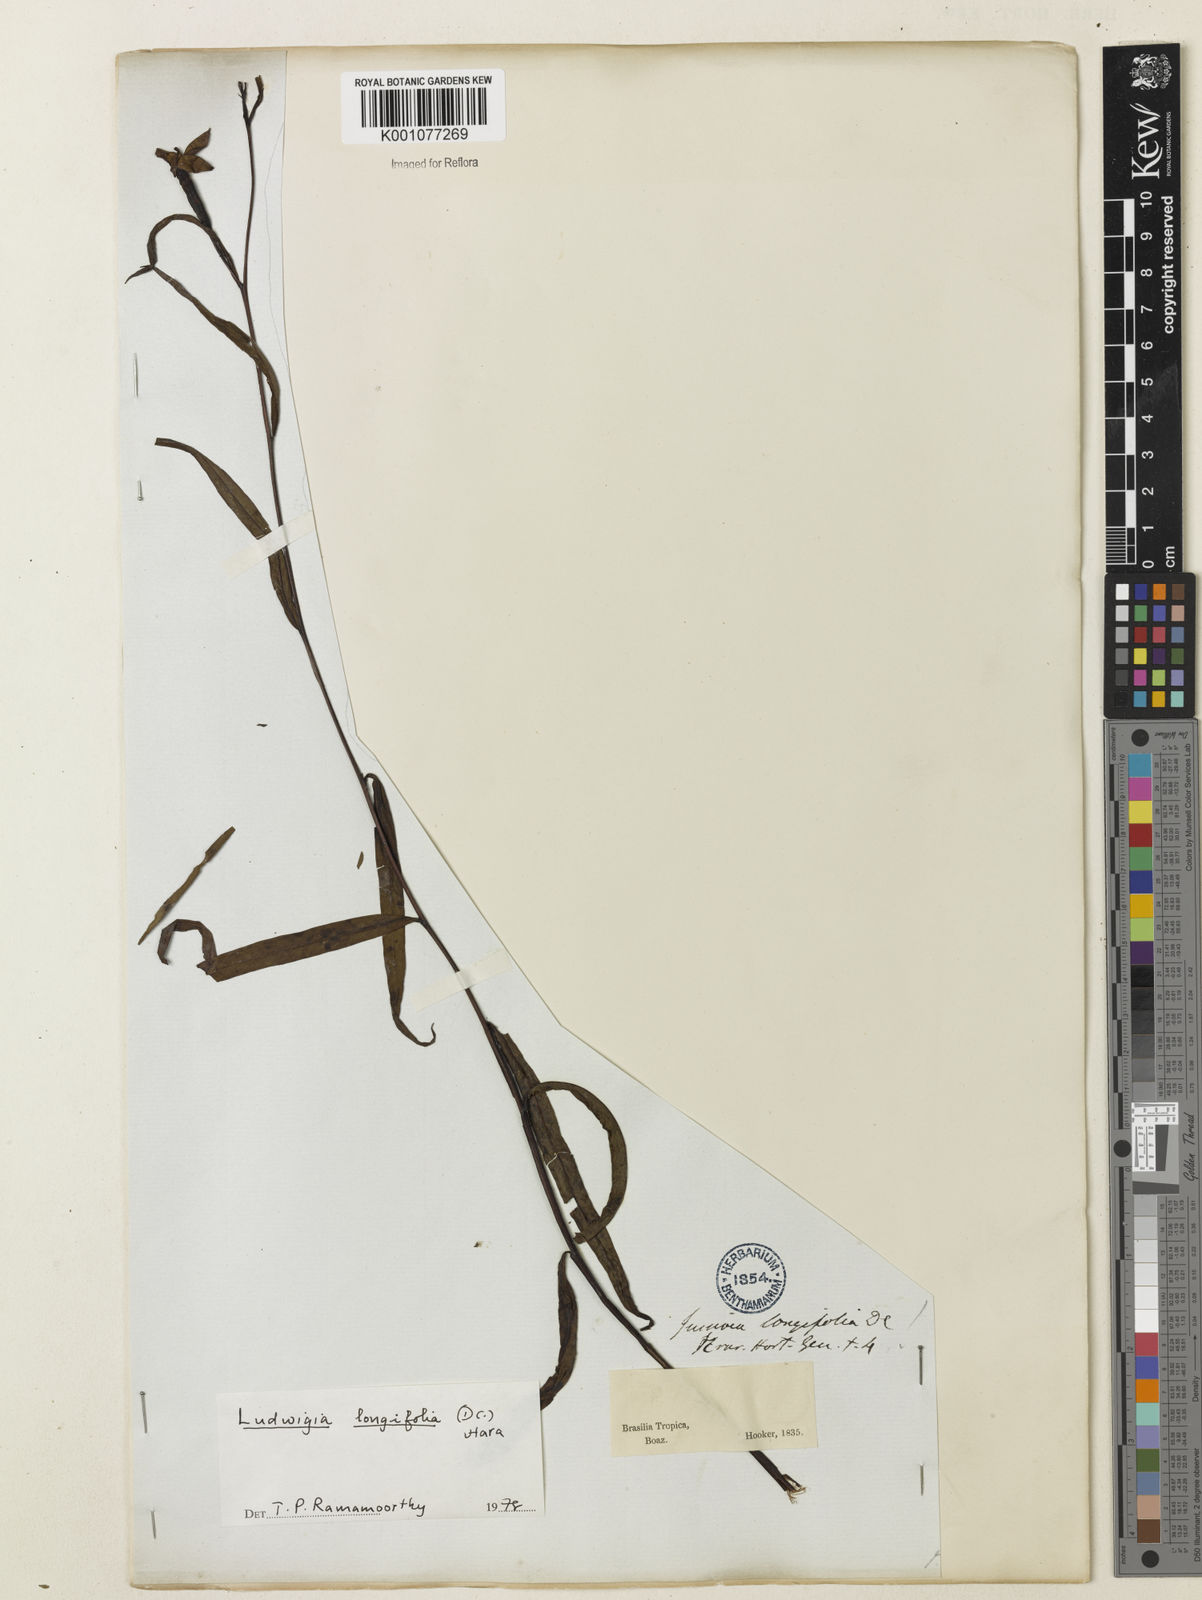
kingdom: Plantae
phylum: Tracheophyta
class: Magnoliopsida
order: Myrtales
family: Onagraceae
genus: Ludwigia
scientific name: Ludwigia longifolia
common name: Longleaf primrose-willow
